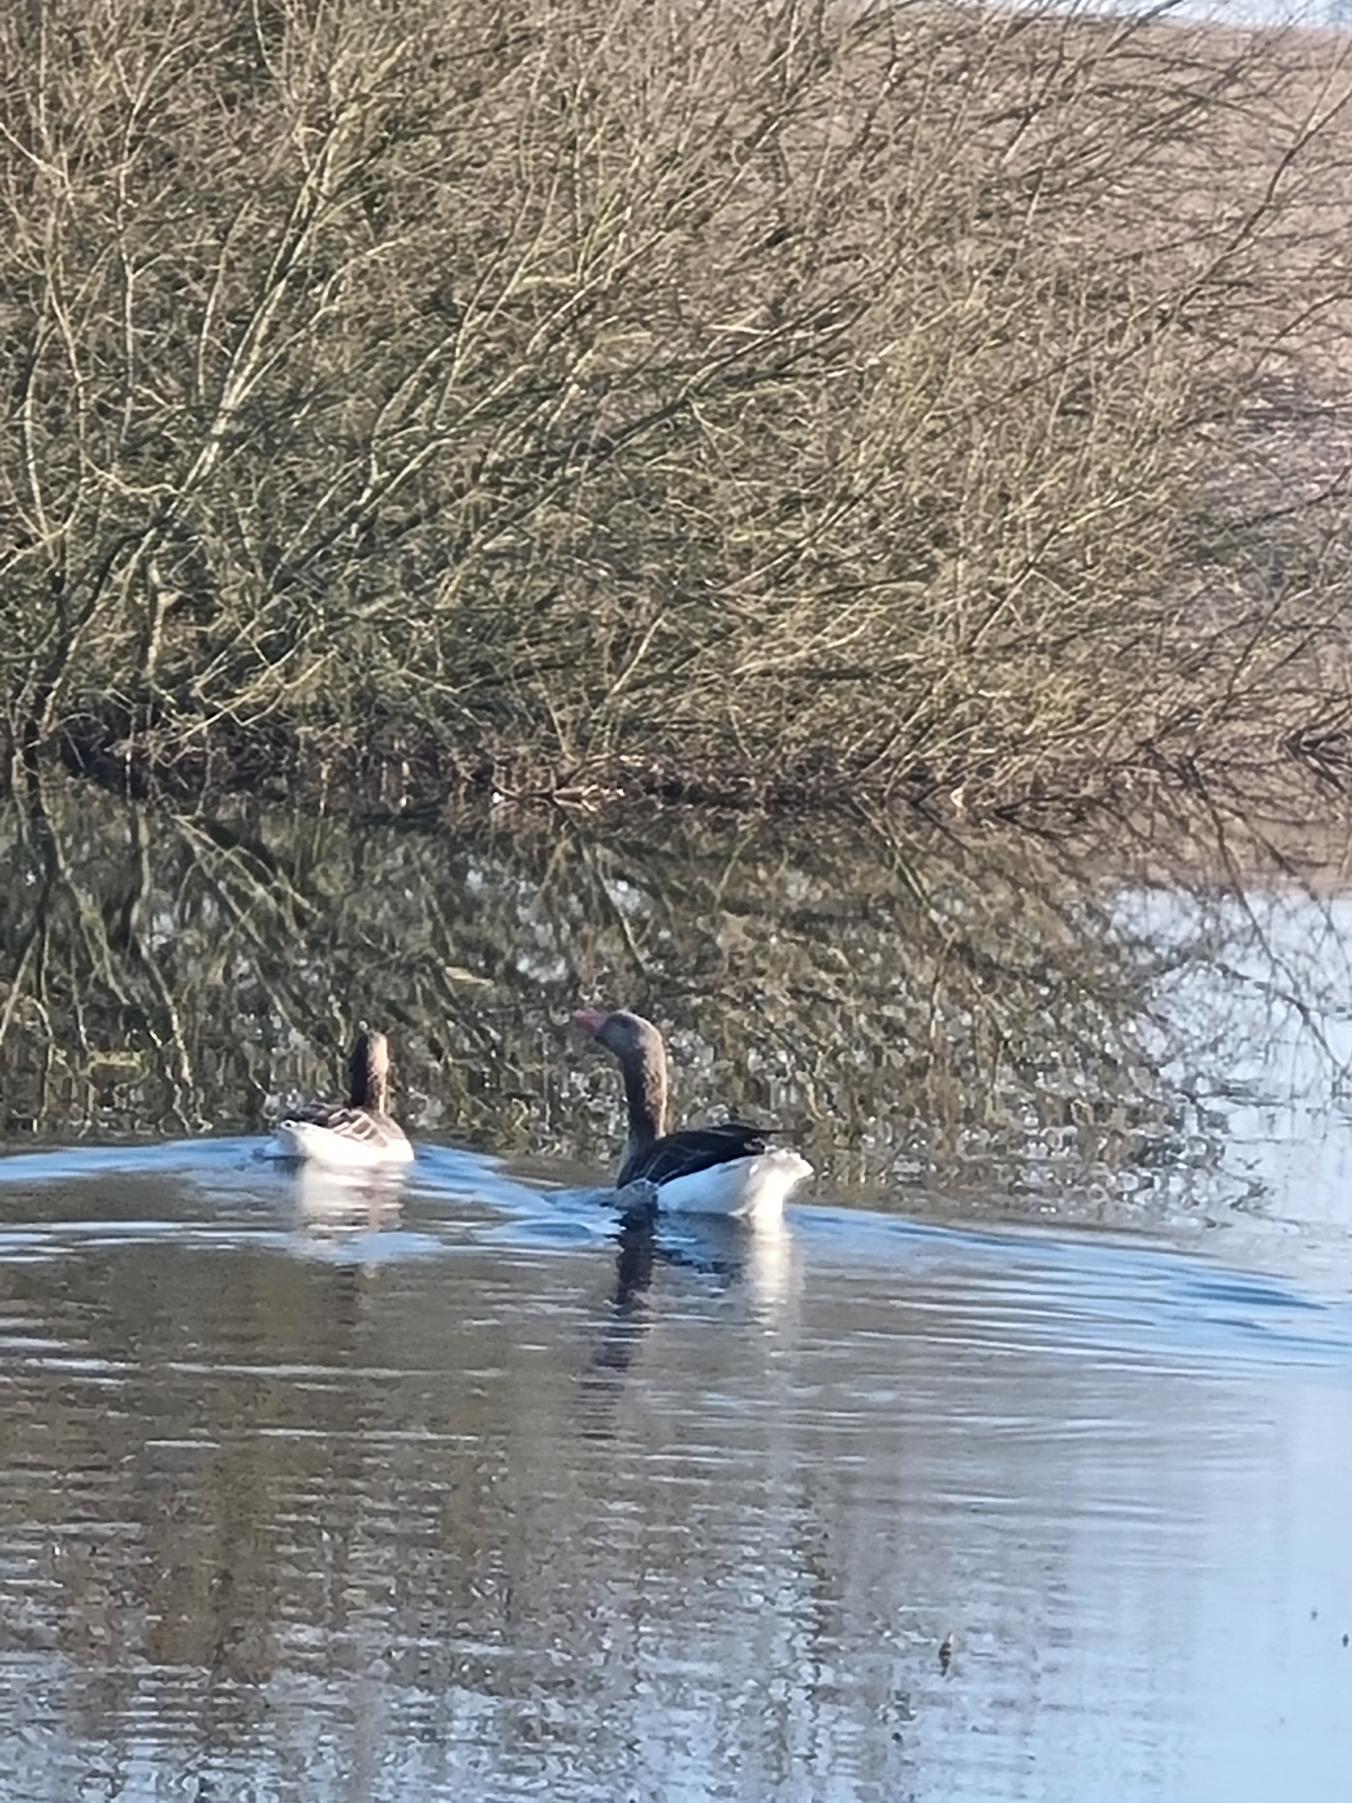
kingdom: Animalia
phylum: Chordata
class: Aves
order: Anseriformes
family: Anatidae
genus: Anser
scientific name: Anser anser
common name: Grågås
